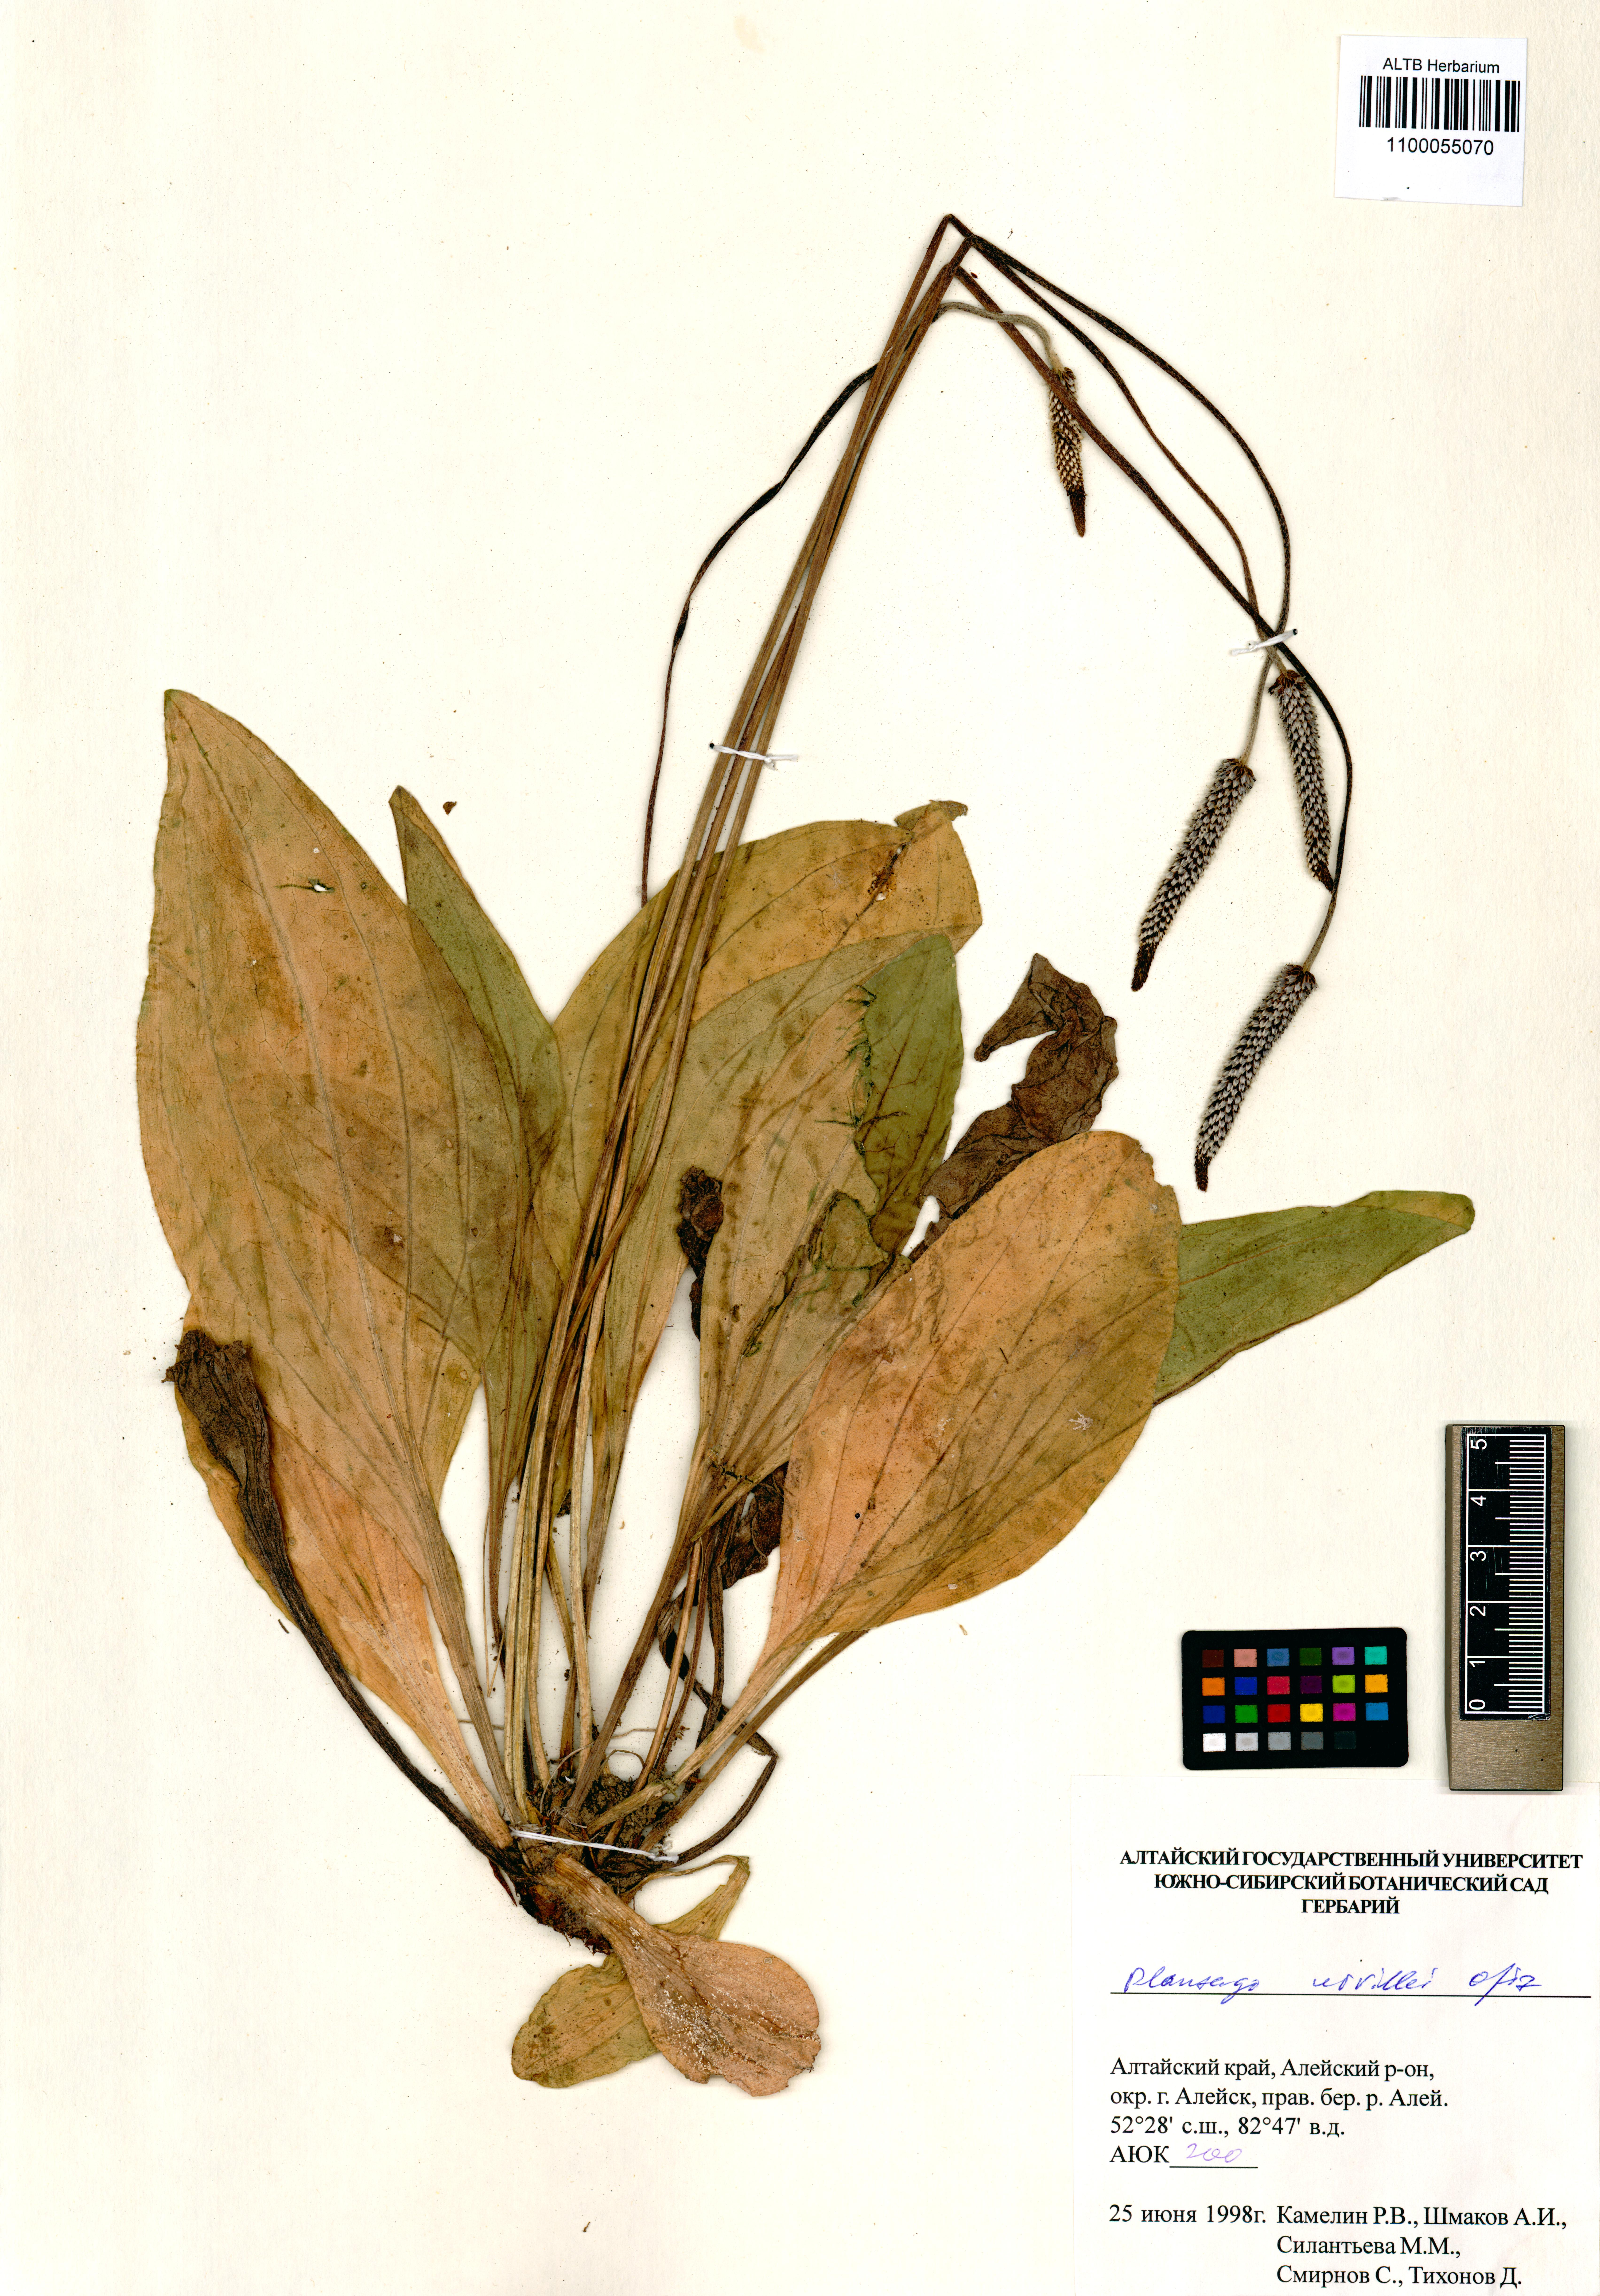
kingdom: Plantae
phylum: Tracheophyta
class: Magnoliopsida
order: Lamiales
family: Plantaginaceae
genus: Plantago
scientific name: Plantago urvillei
